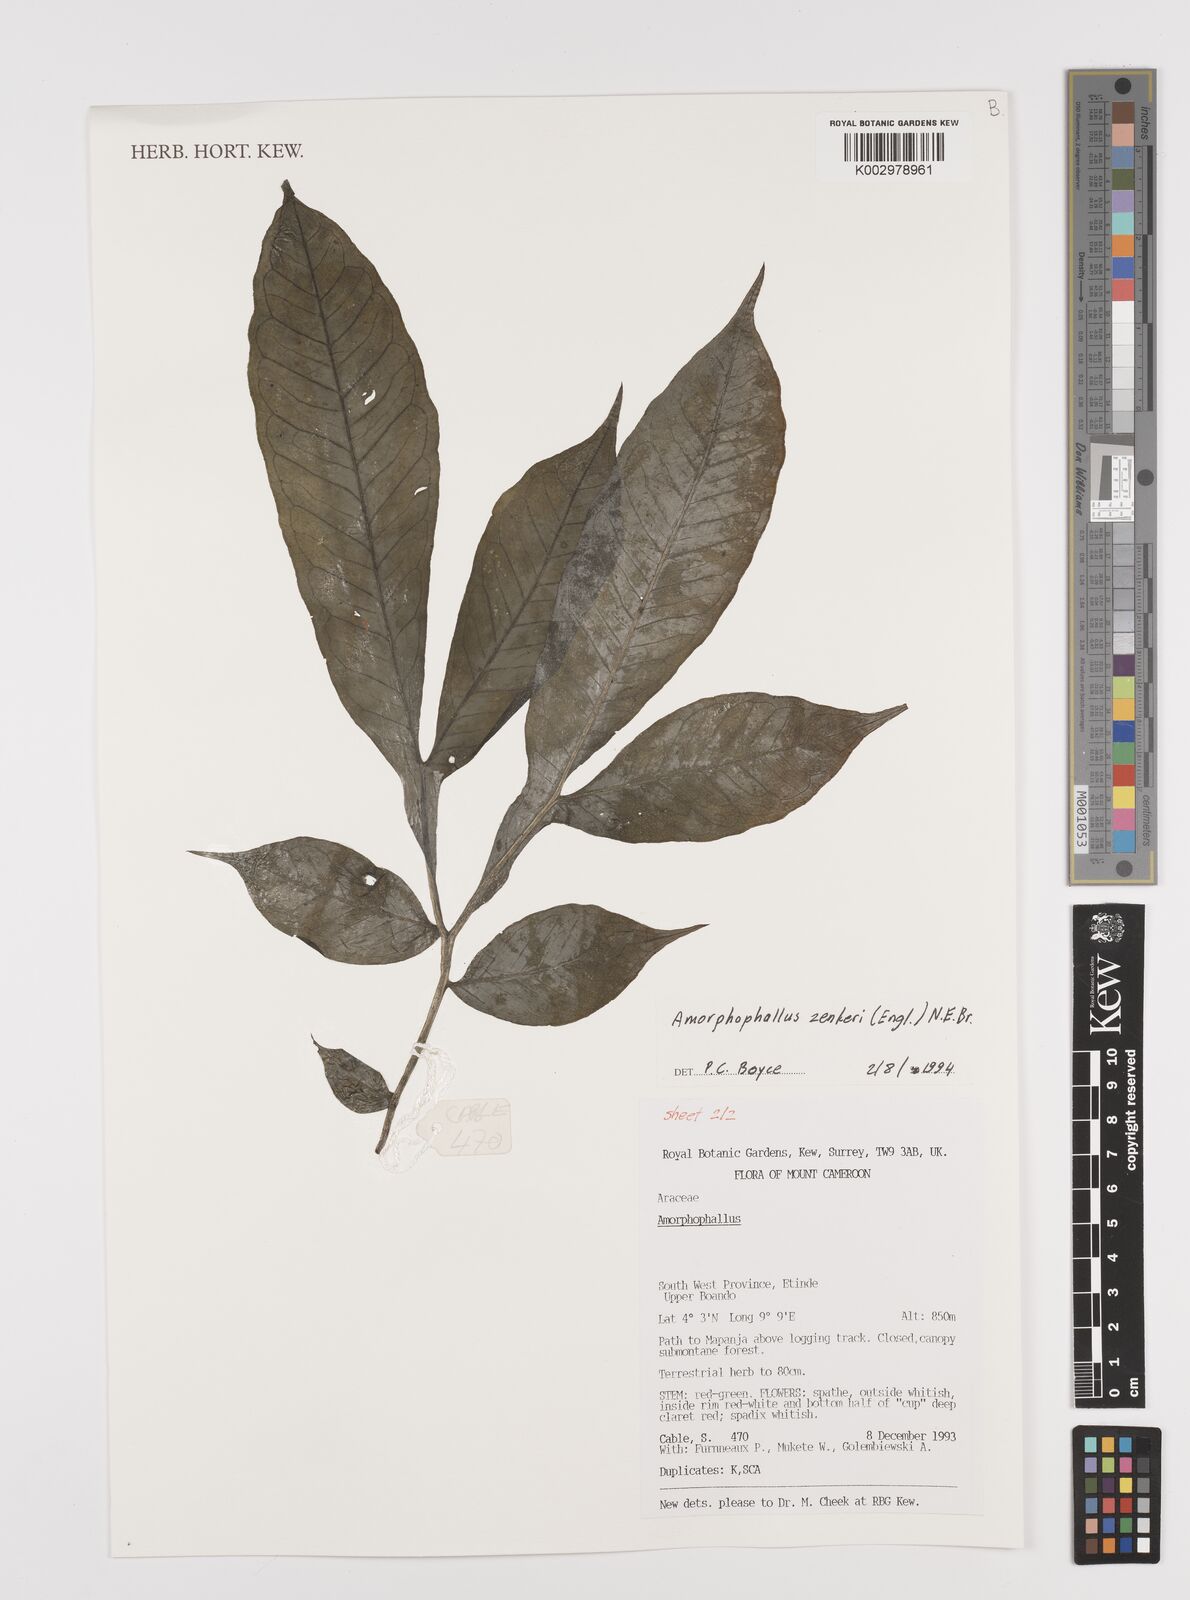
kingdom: Plantae
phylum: Tracheophyta
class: Liliopsida
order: Alismatales
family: Araceae
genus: Amorphophallus
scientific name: Amorphophallus zenkeri
